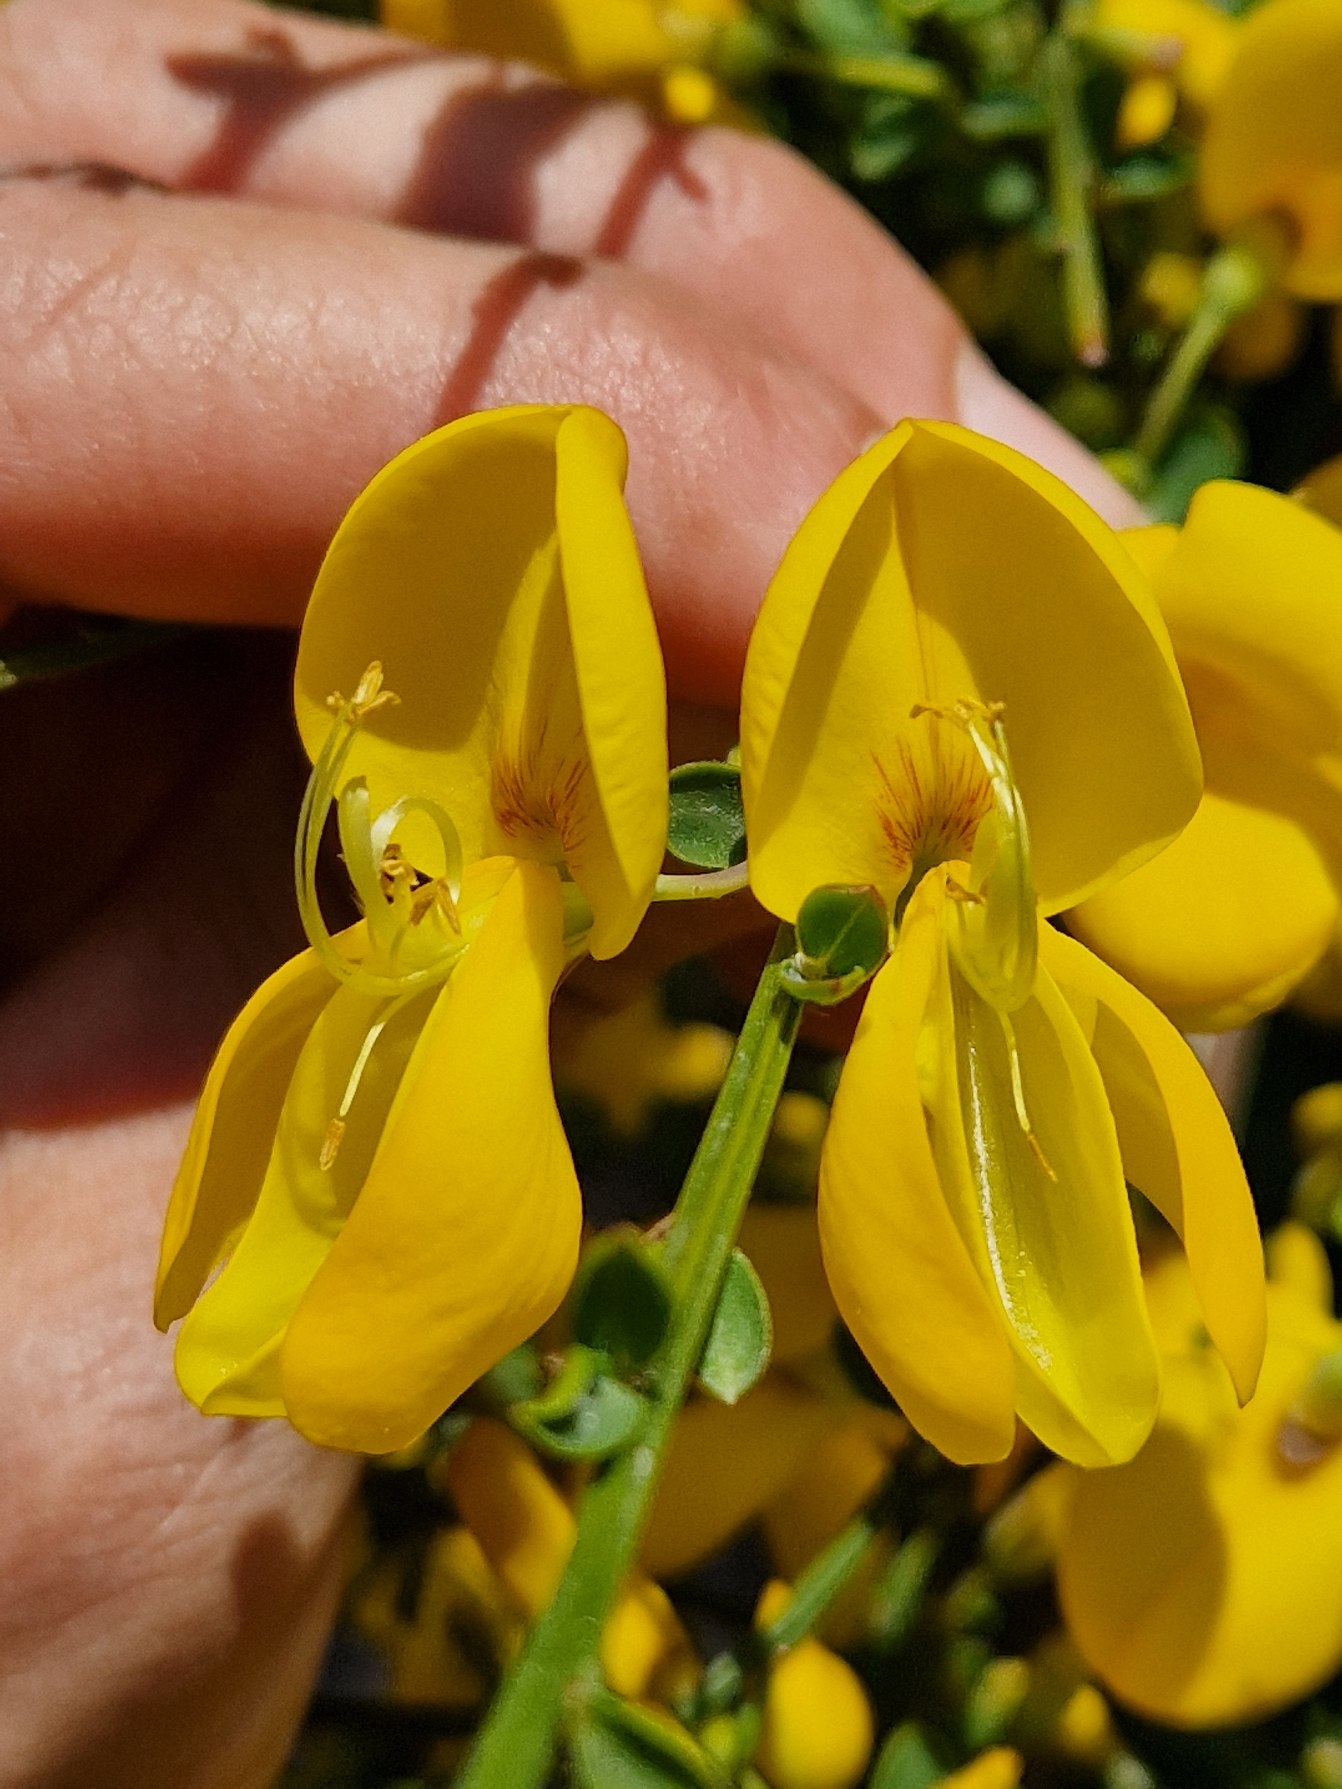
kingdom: Plantae
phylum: Tracheophyta
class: Magnoliopsida
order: Fabales
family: Fabaceae
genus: Cytisus
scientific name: Cytisus scoparius
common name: Almindelig gyvel
